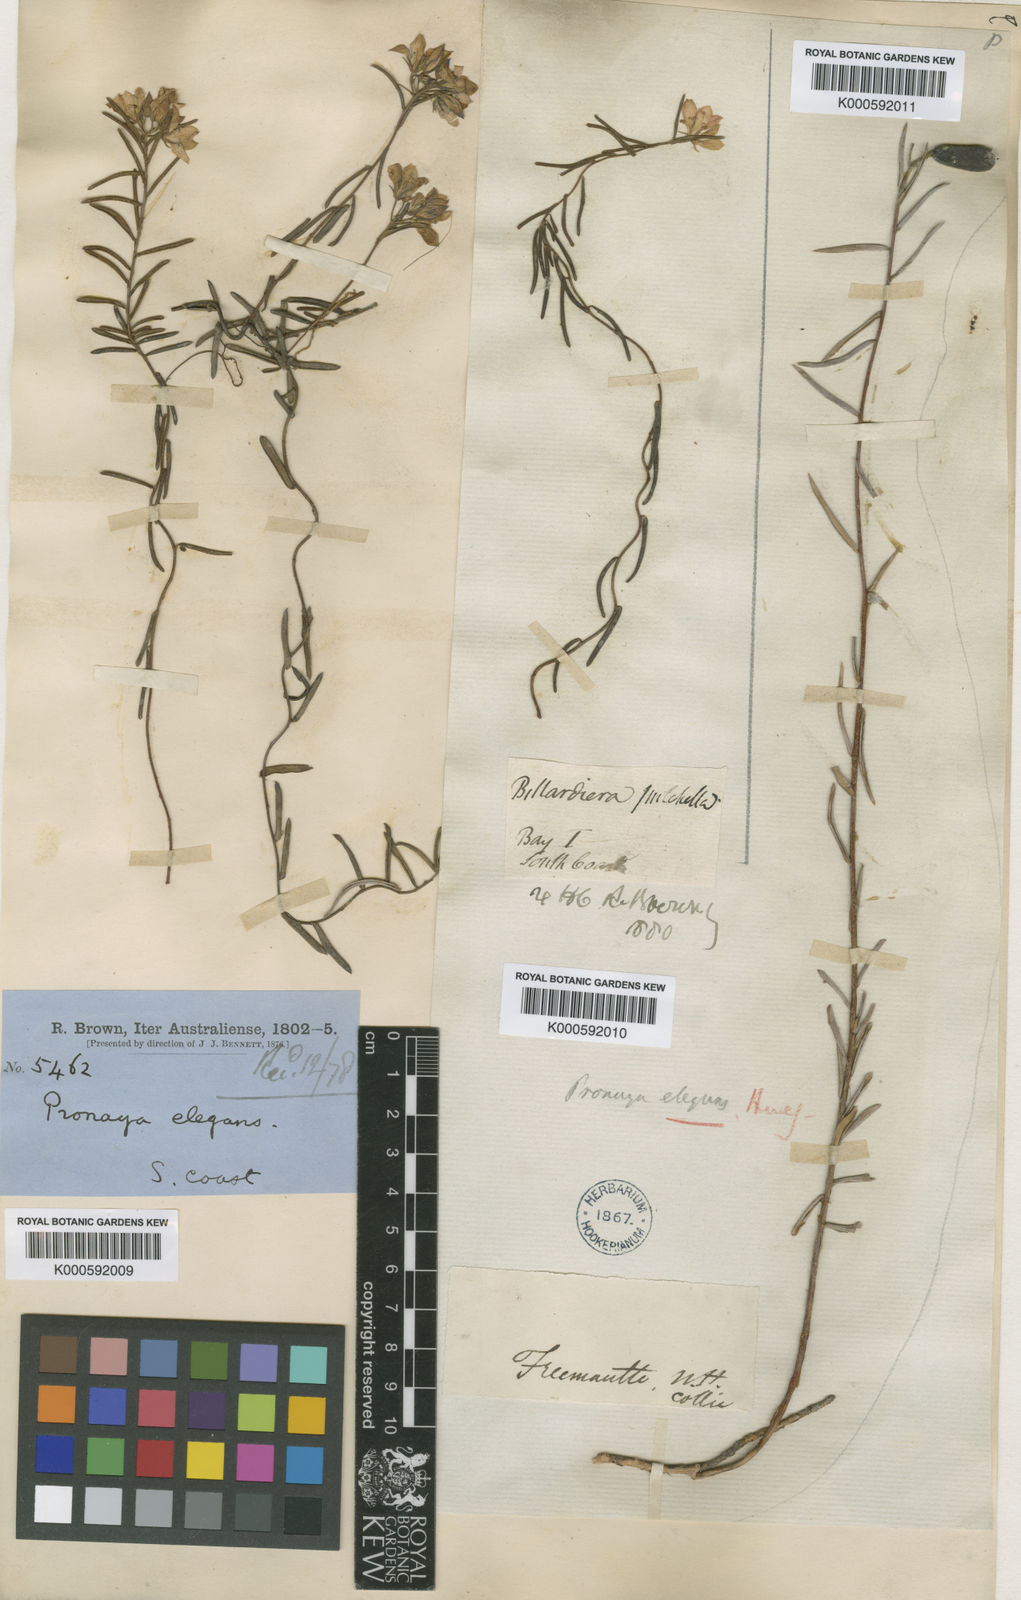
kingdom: Plantae
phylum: Tracheophyta
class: Magnoliopsida
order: Apiales
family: Pittosporaceae
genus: Billardiera
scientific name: Billardiera fraseri
